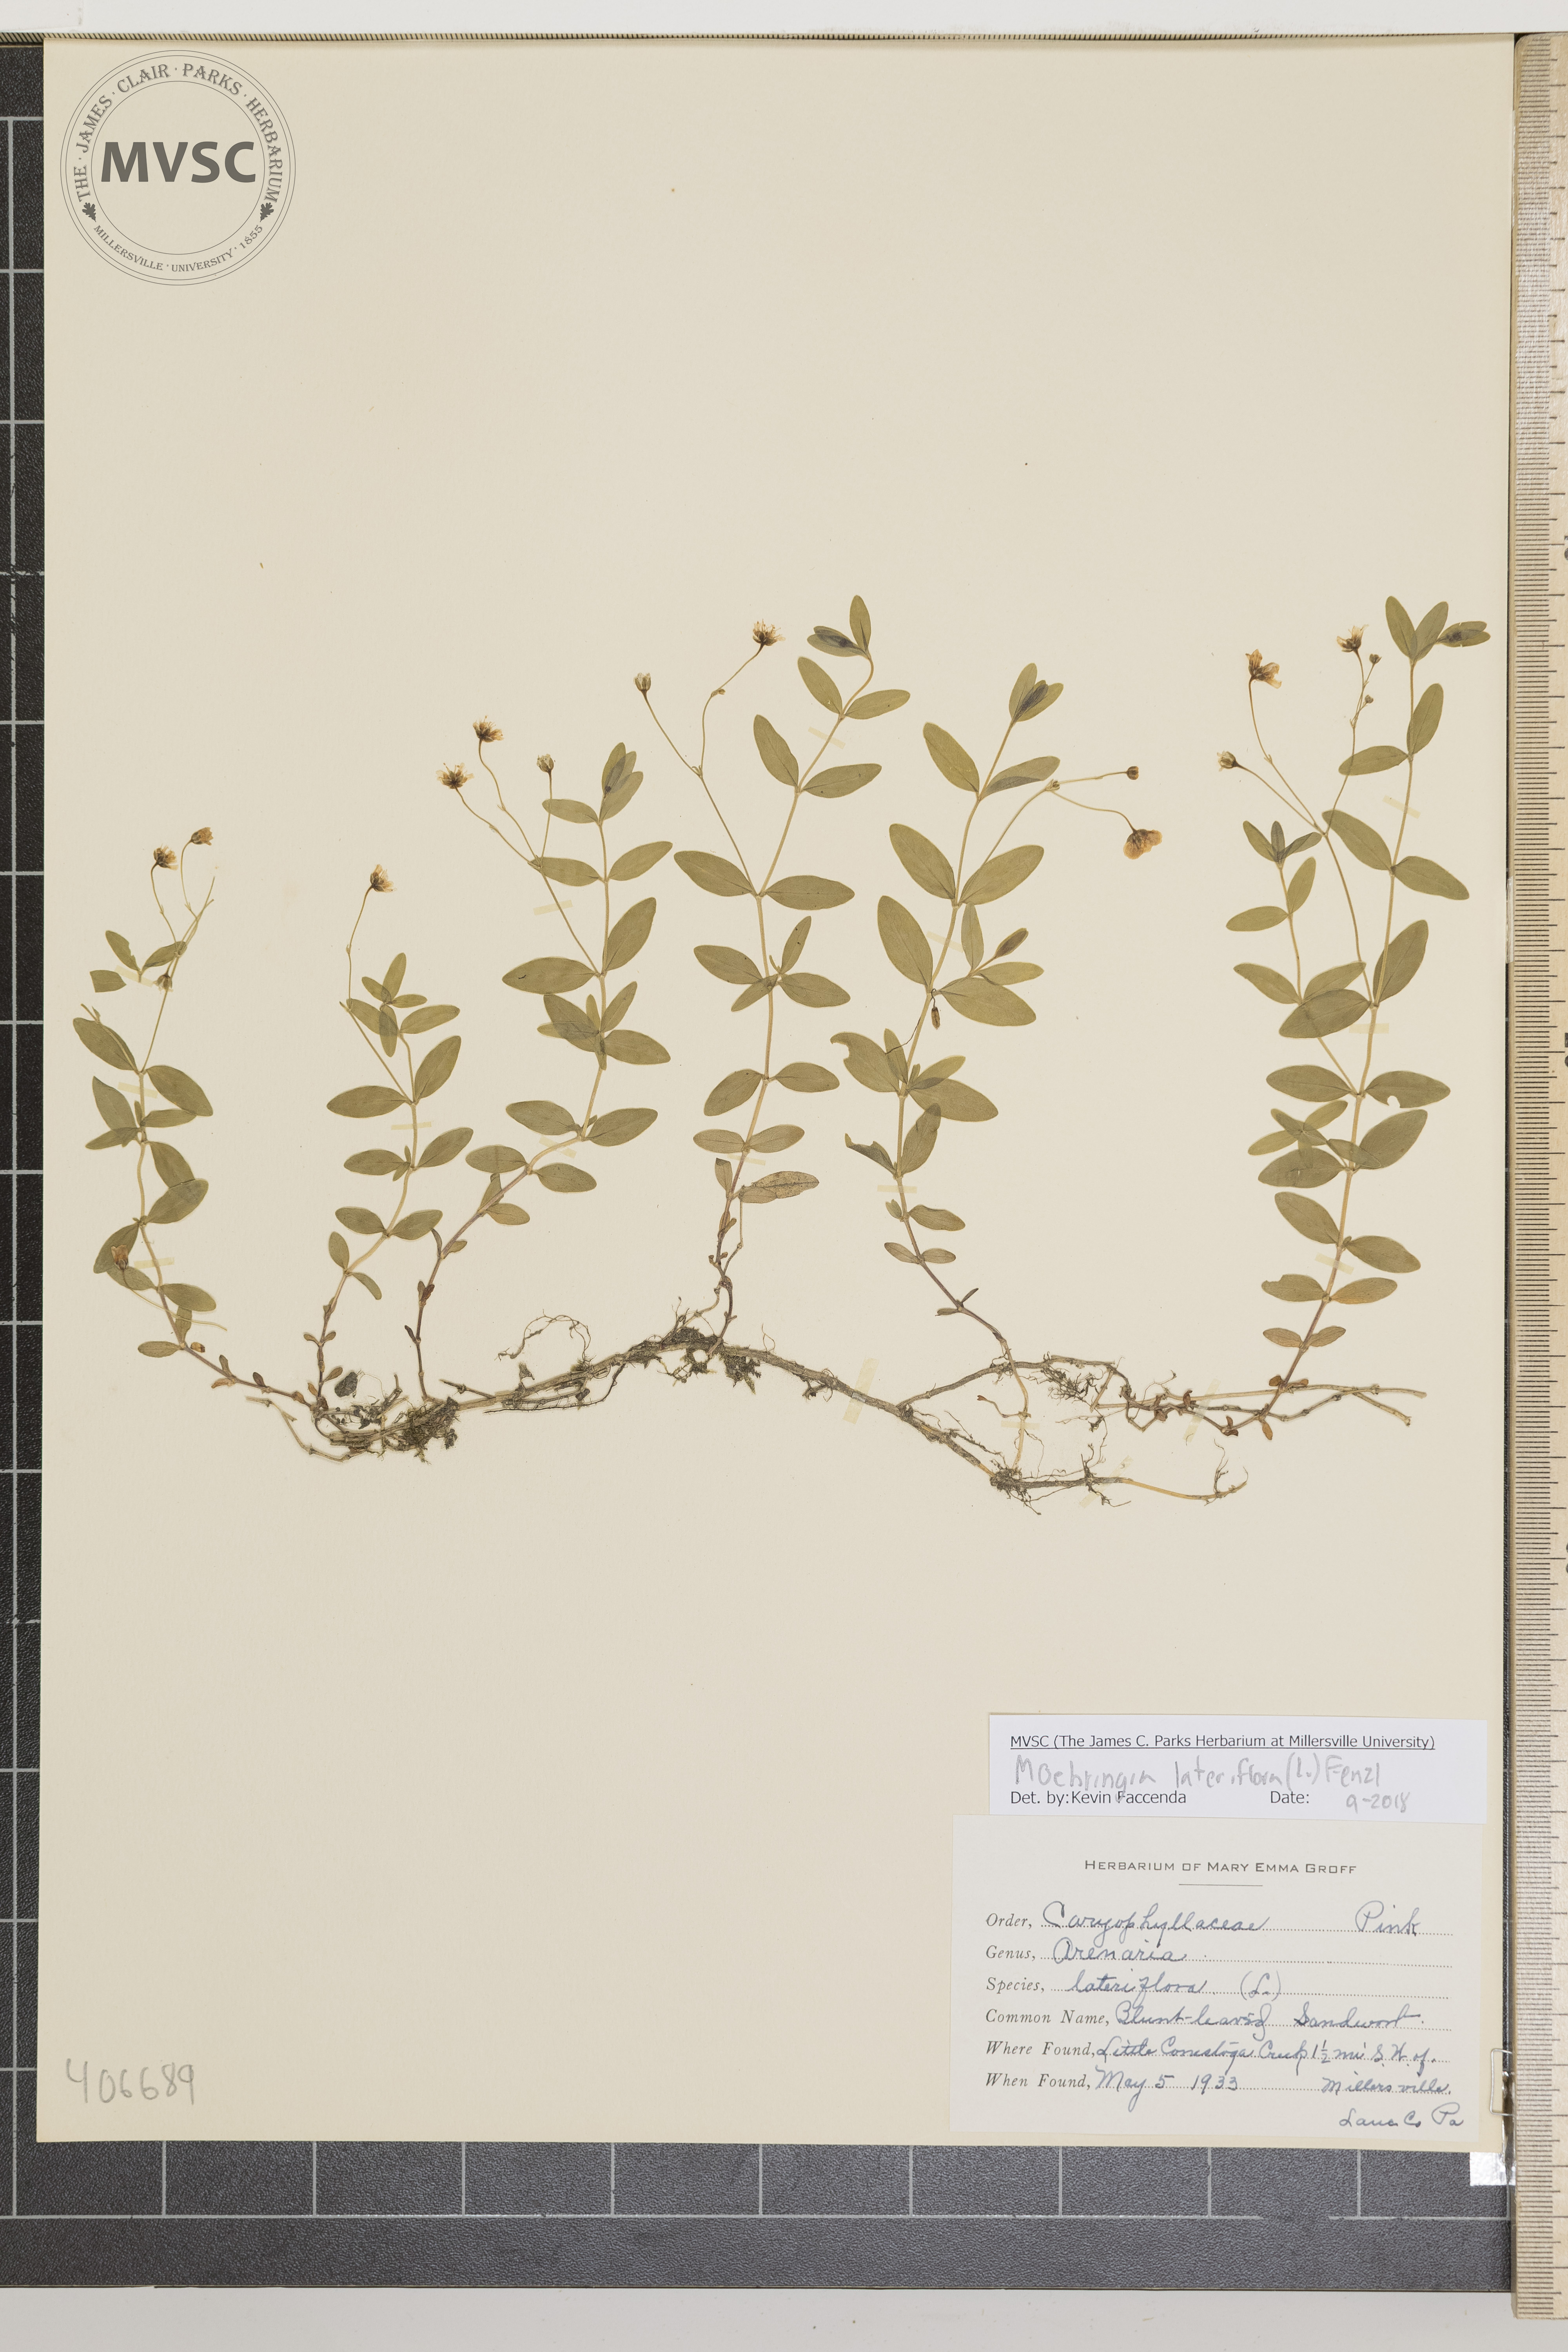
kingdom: Plantae
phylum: Tracheophyta
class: Magnoliopsida
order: Caryophyllales
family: Caryophyllaceae
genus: Moehringia
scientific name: Moehringia lateriflora
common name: Blunt-leaved Sandwort
